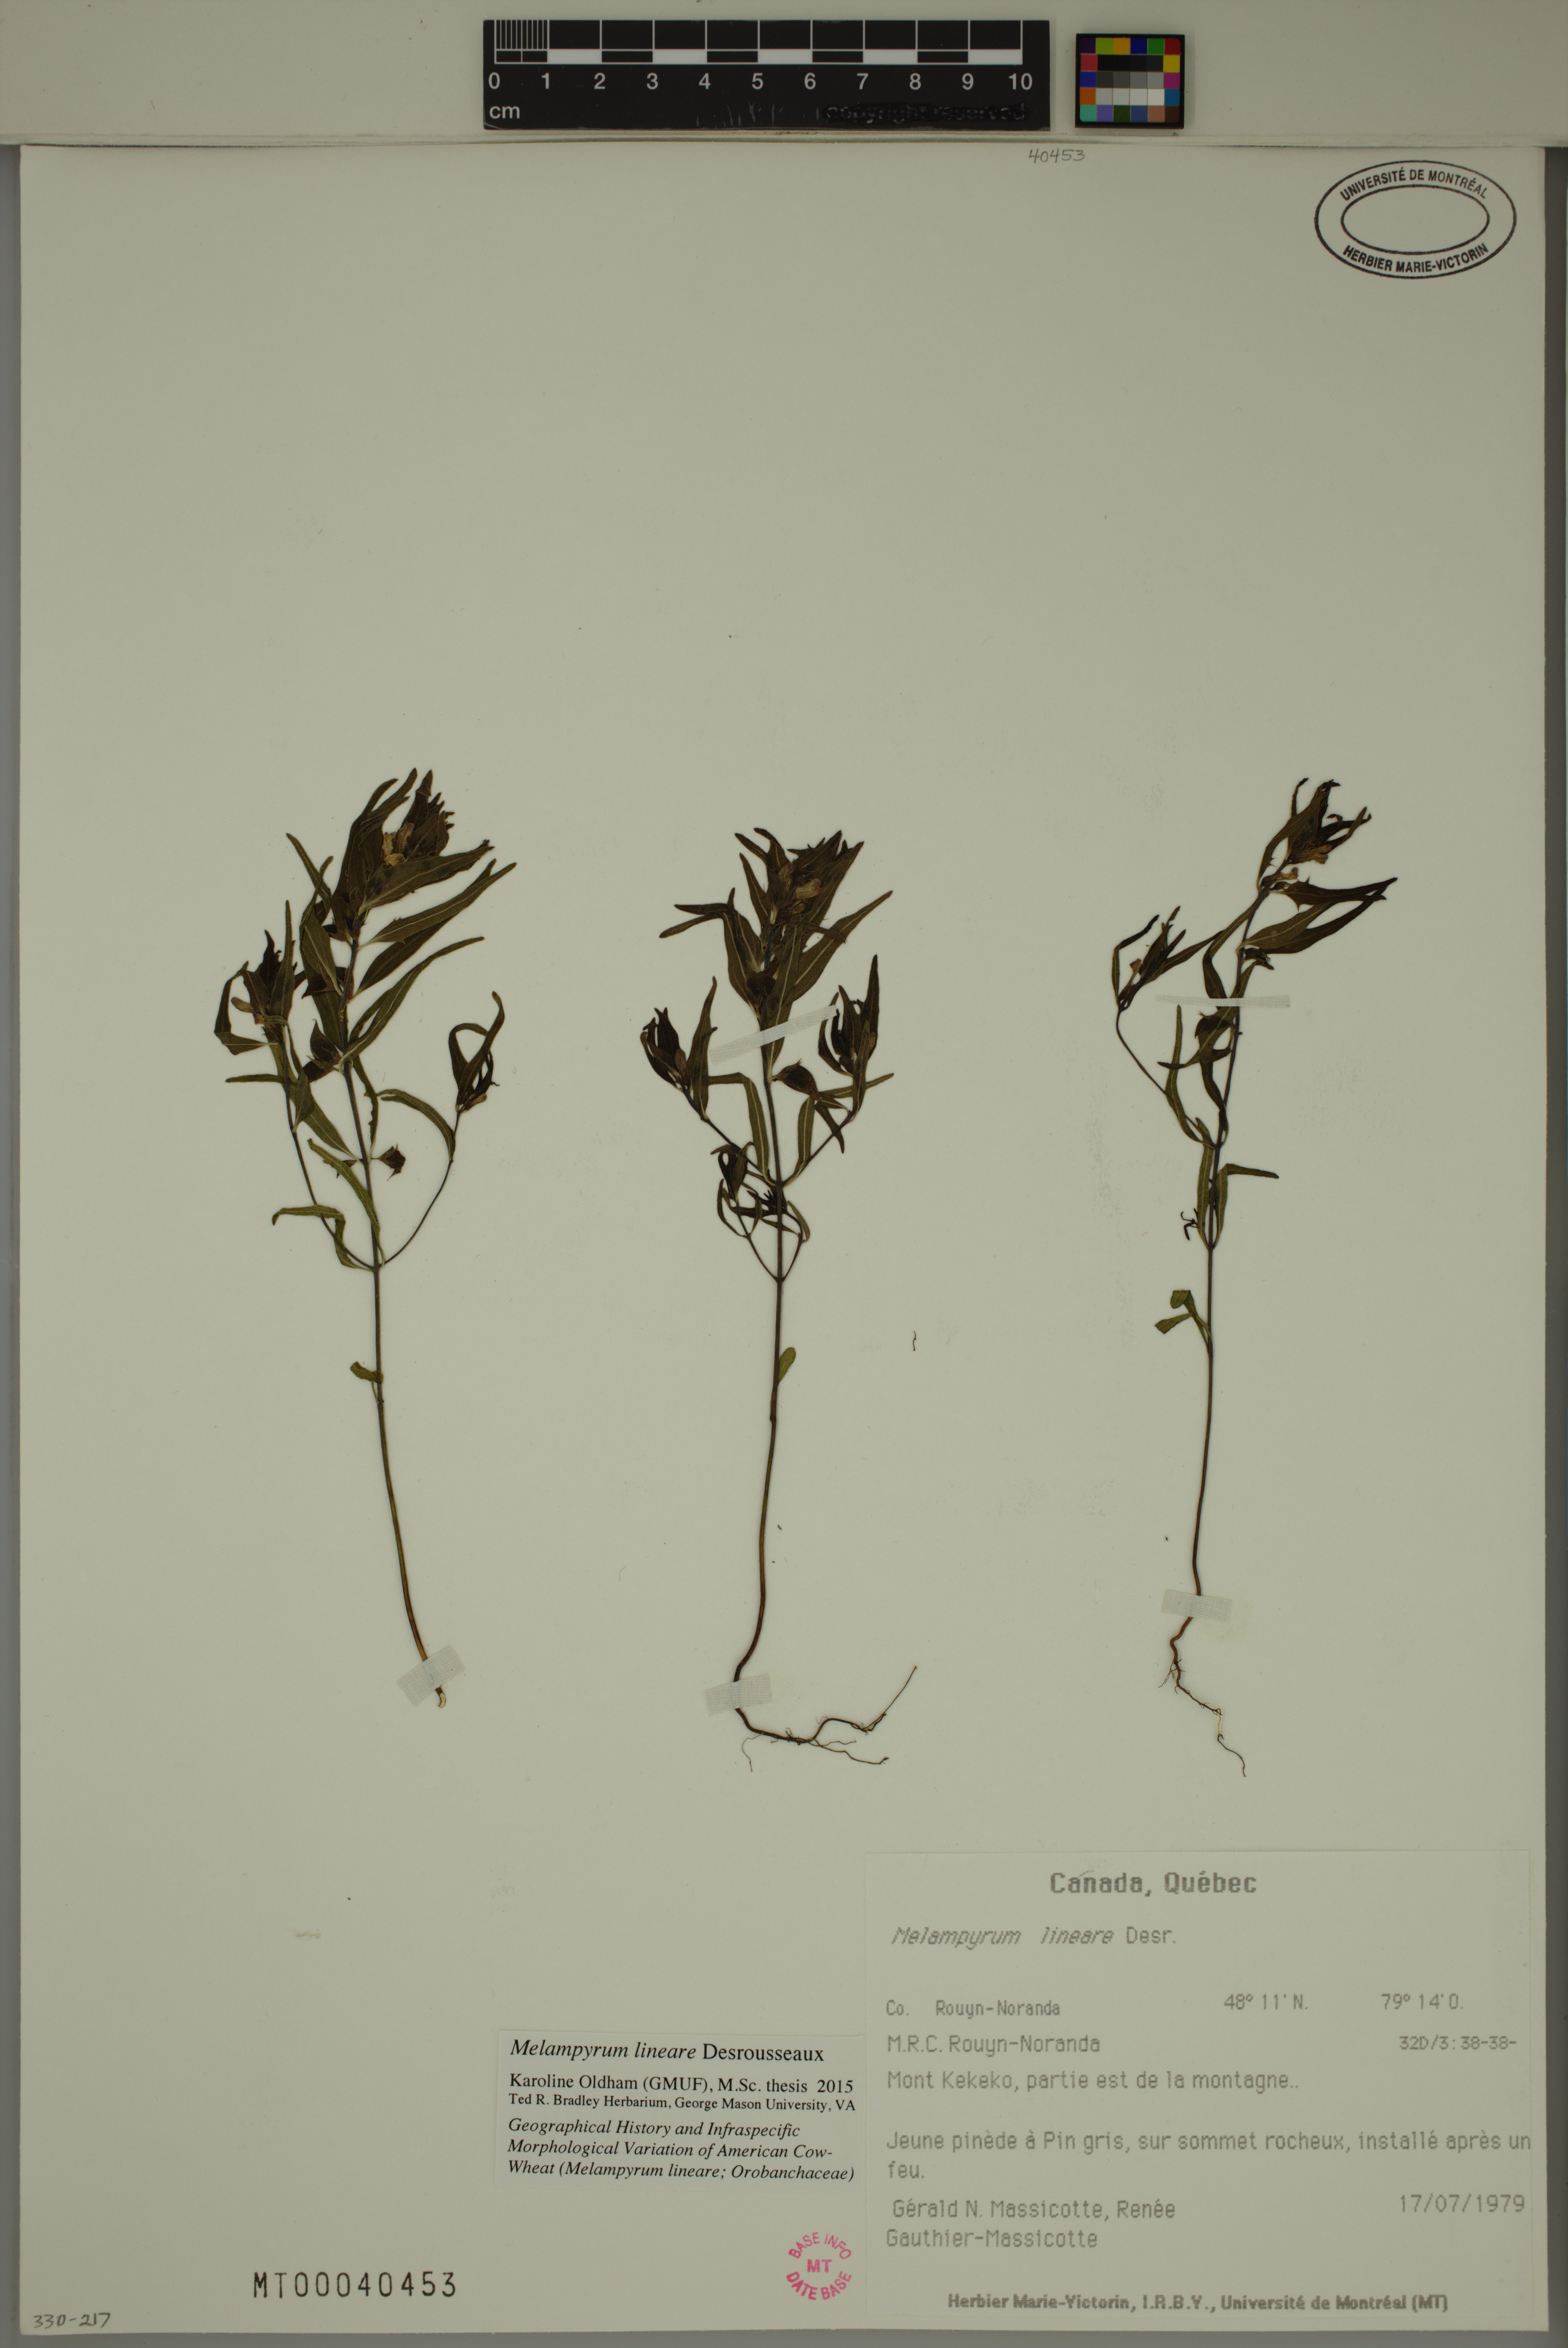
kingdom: Plantae
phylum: Tracheophyta
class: Magnoliopsida
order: Lamiales
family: Orobanchaceae
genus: Melampyrum
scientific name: Melampyrum lineare
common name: American cow-wheat
